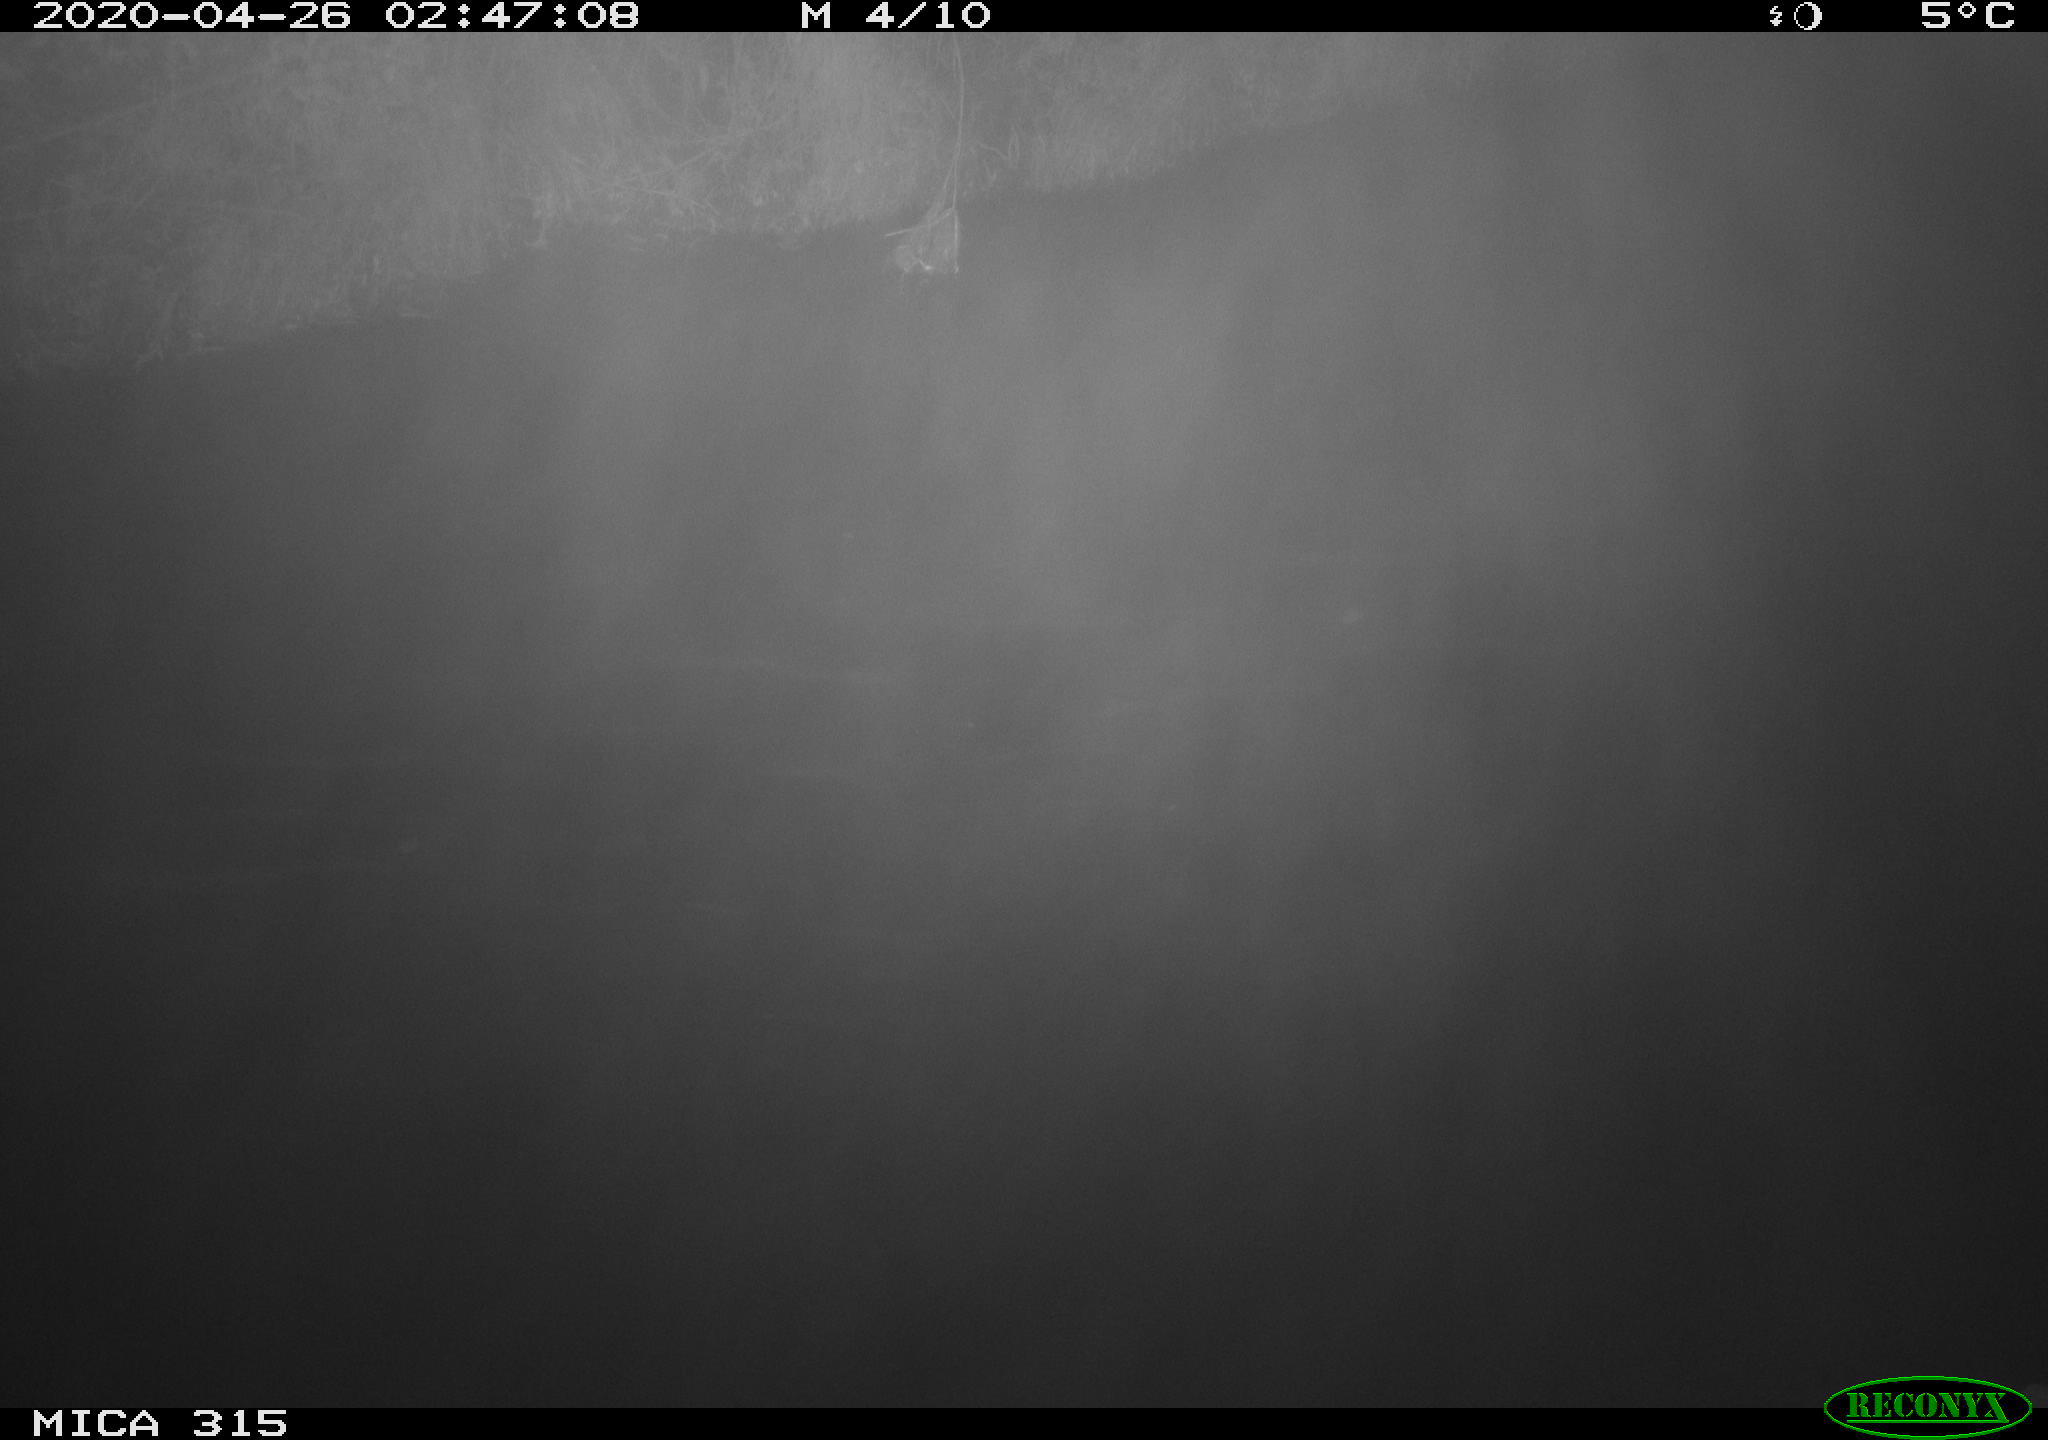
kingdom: Animalia
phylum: Chordata
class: Aves
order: Anseriformes
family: Anatidae
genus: Anas
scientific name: Anas platyrhynchos
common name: Mallard
